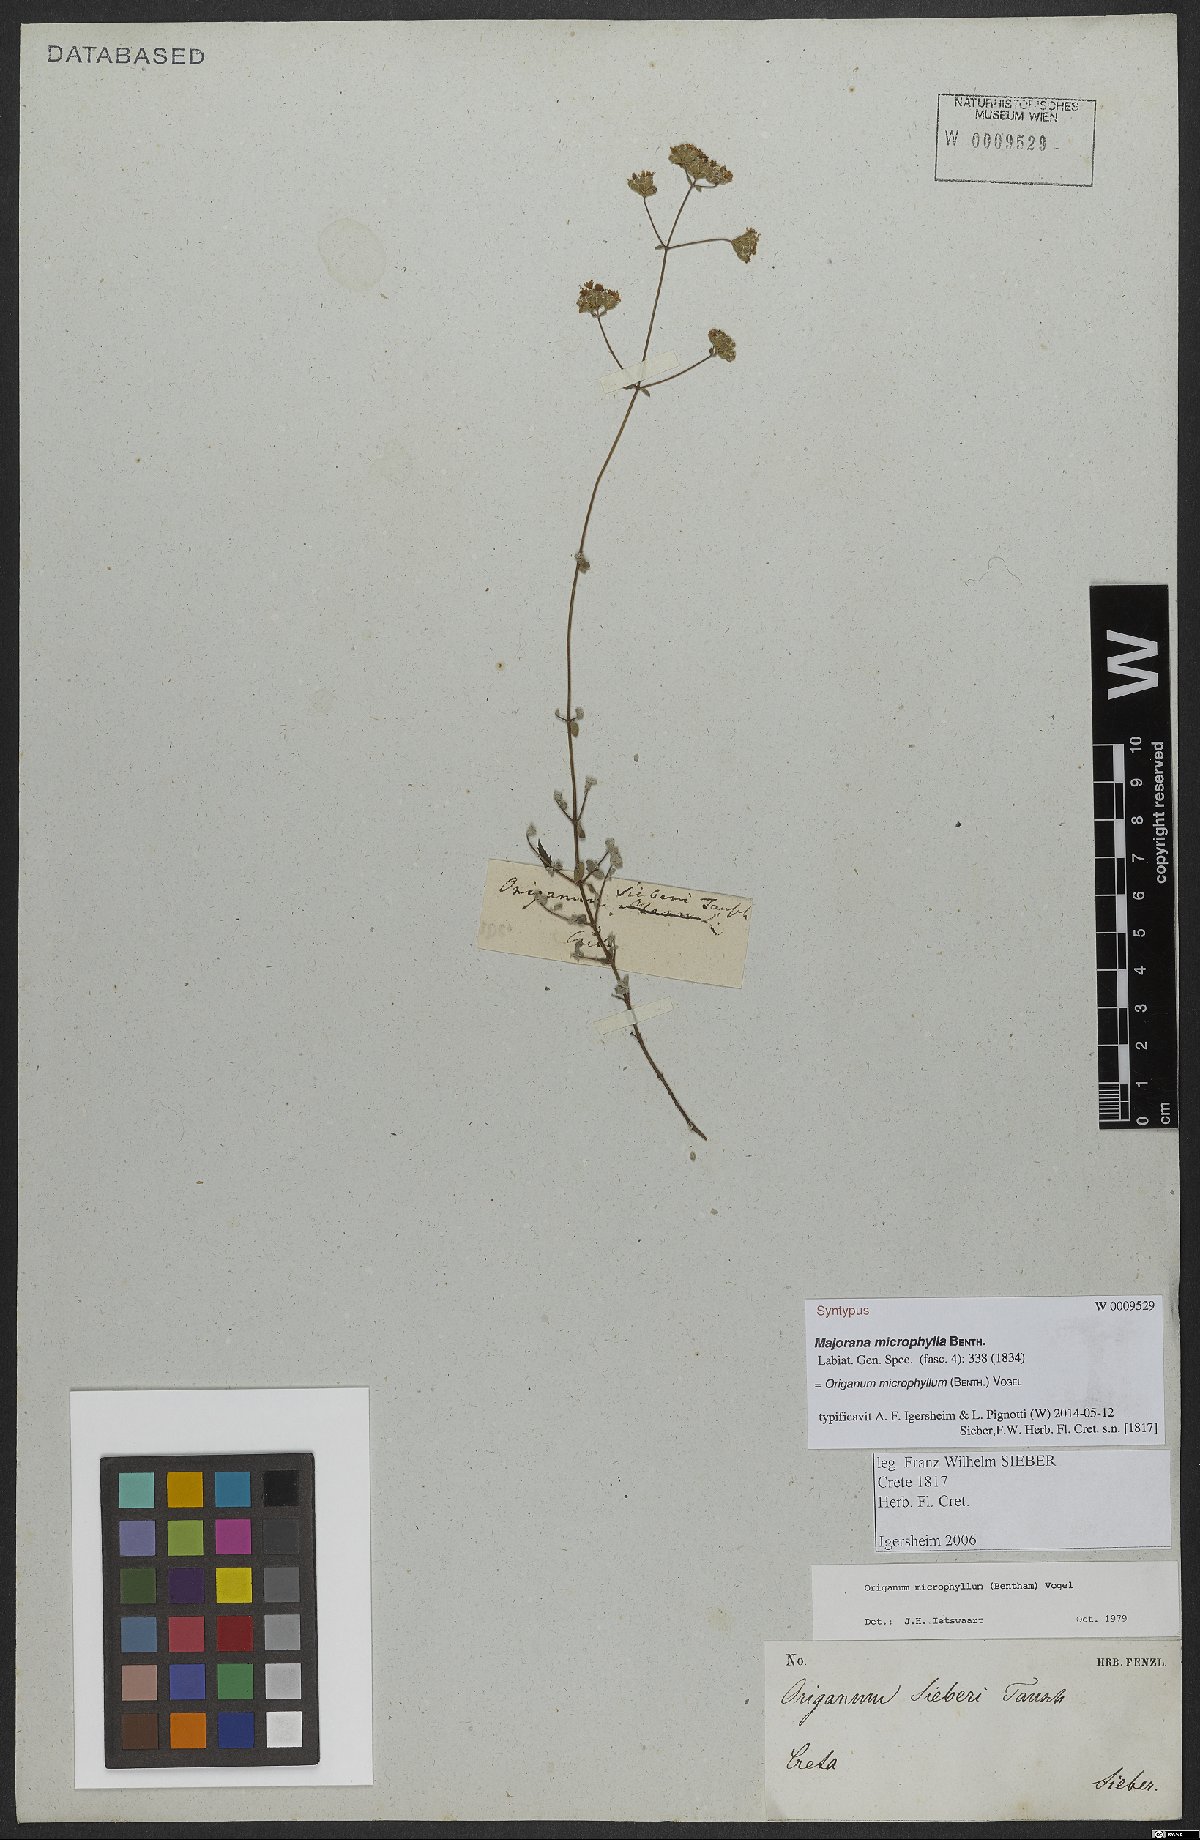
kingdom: Plantae
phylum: Tracheophyta
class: Magnoliopsida
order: Lamiales
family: Lamiaceae
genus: Origanum
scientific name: Origanum microphyllum
